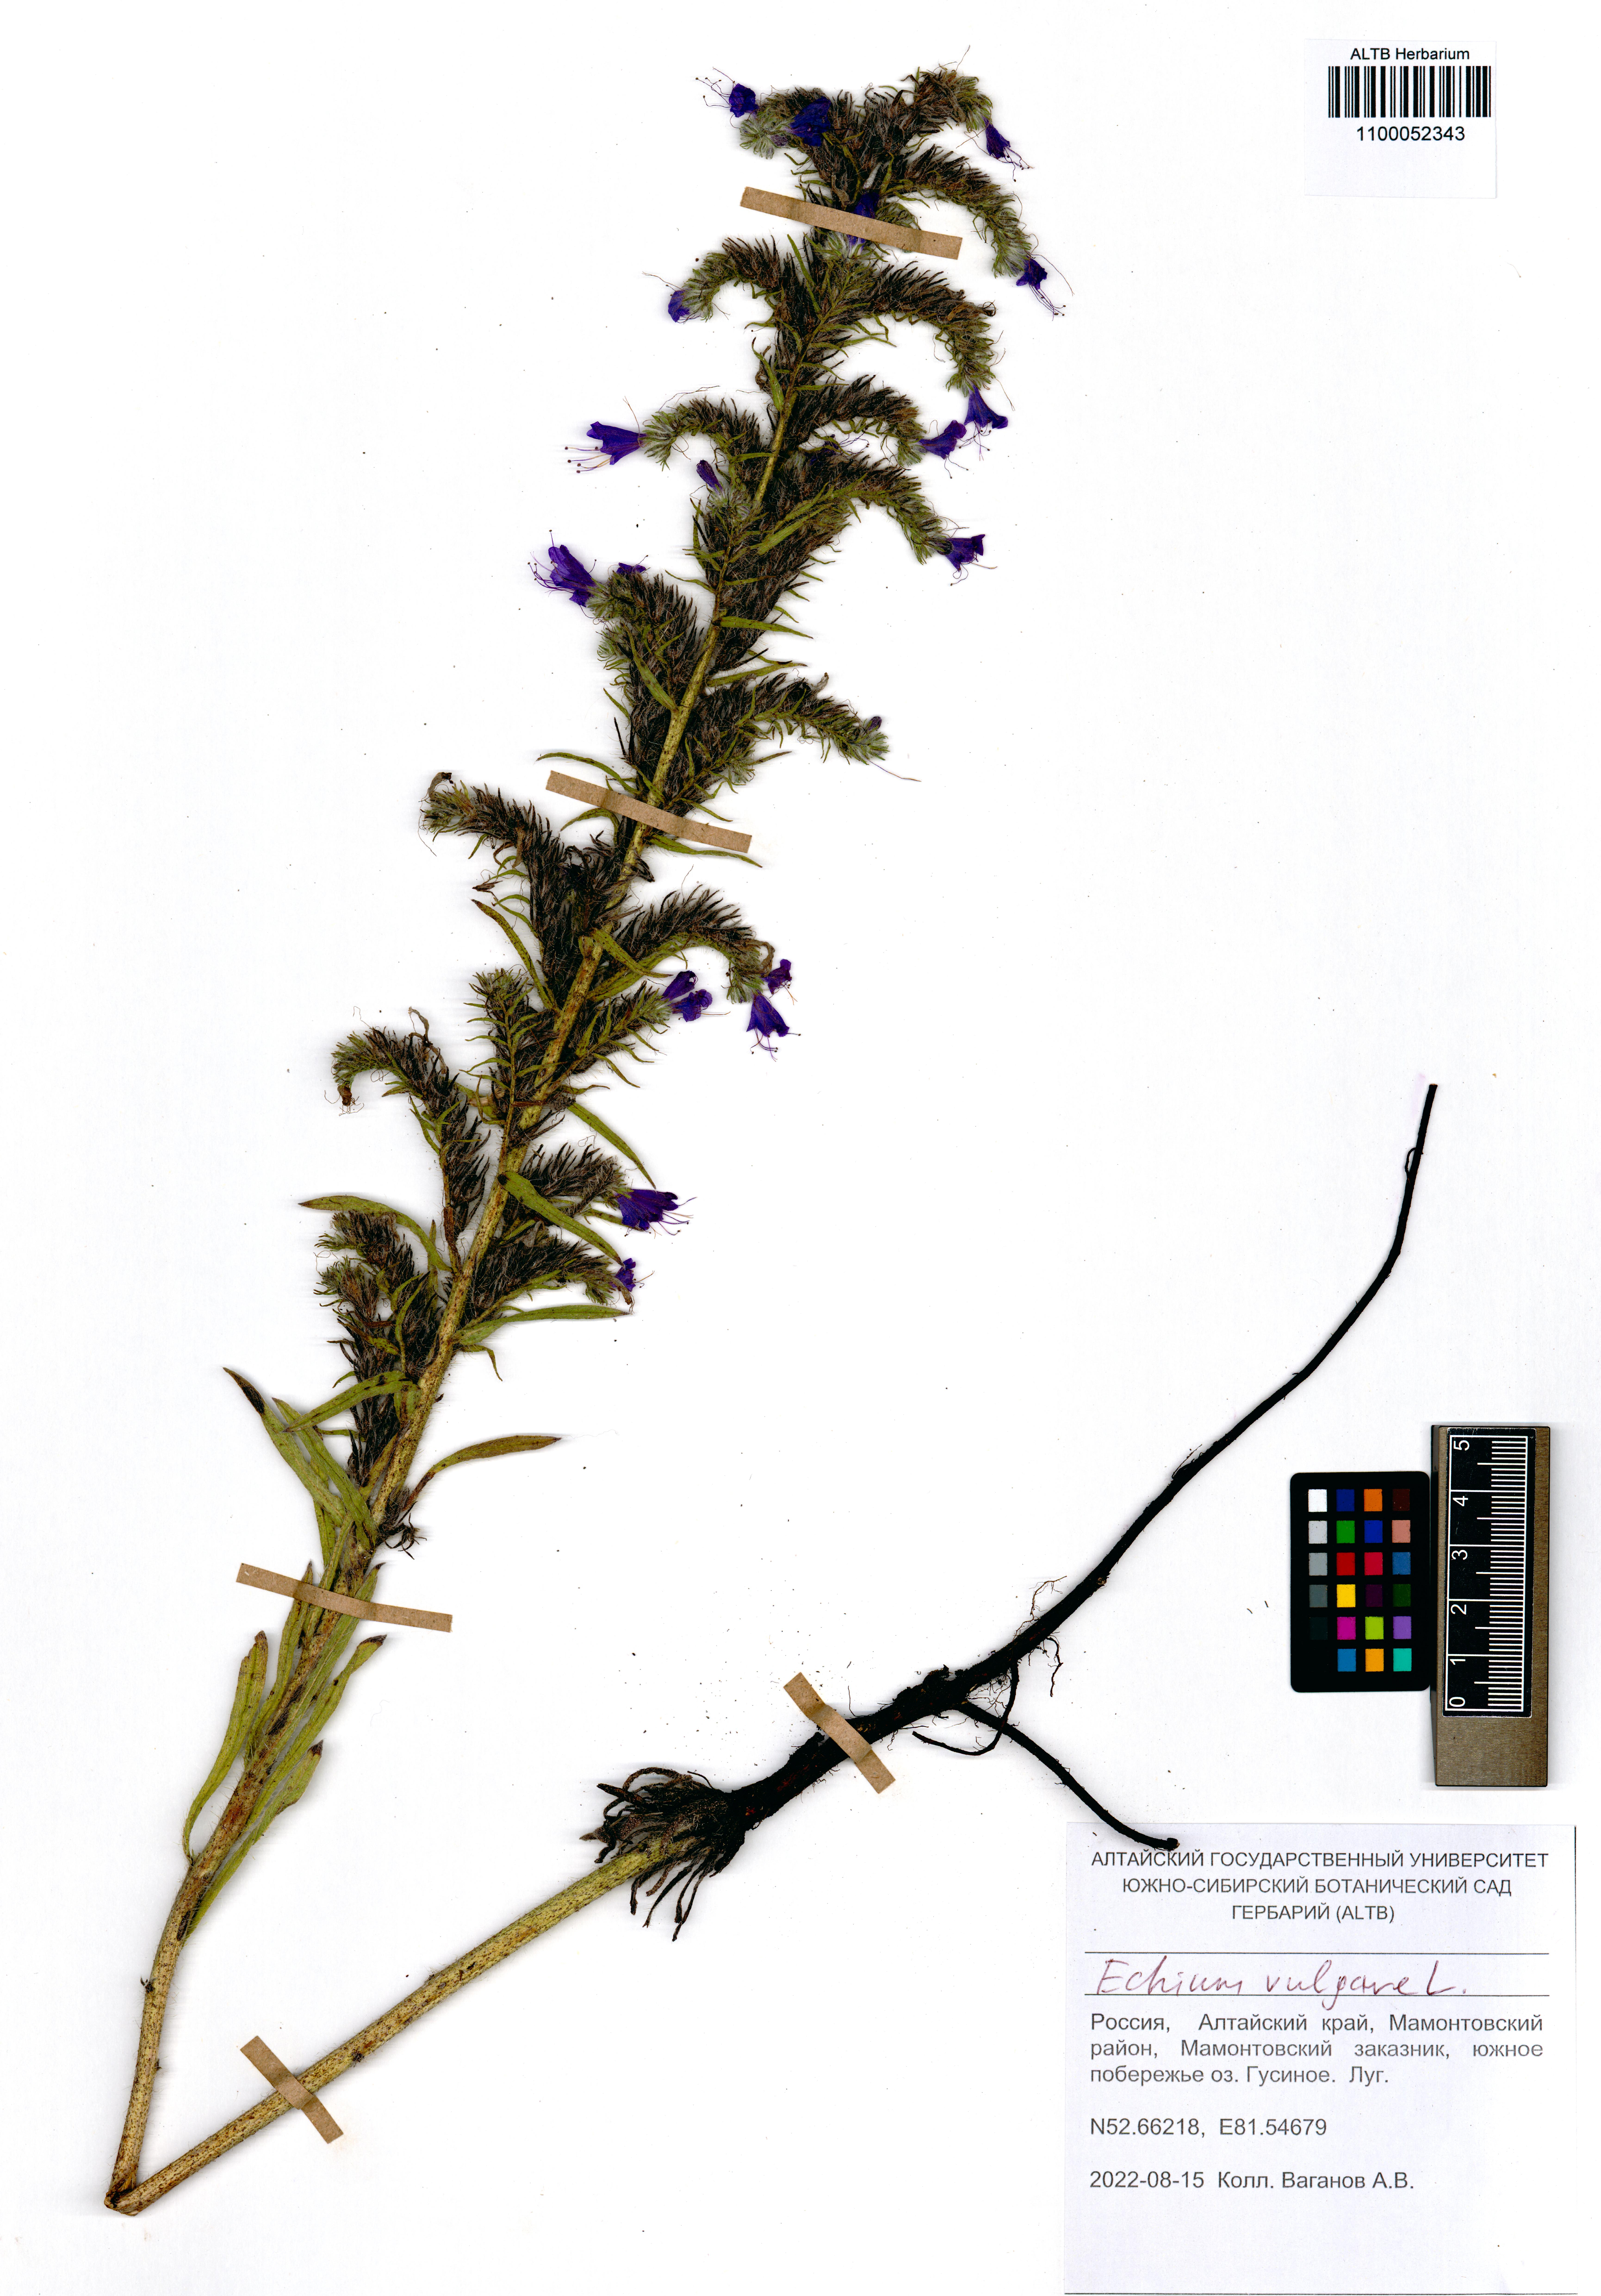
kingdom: Plantae
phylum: Tracheophyta
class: Magnoliopsida
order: Boraginales
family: Boraginaceae
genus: Echium
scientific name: Echium vulgare
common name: Common viper's bugloss
